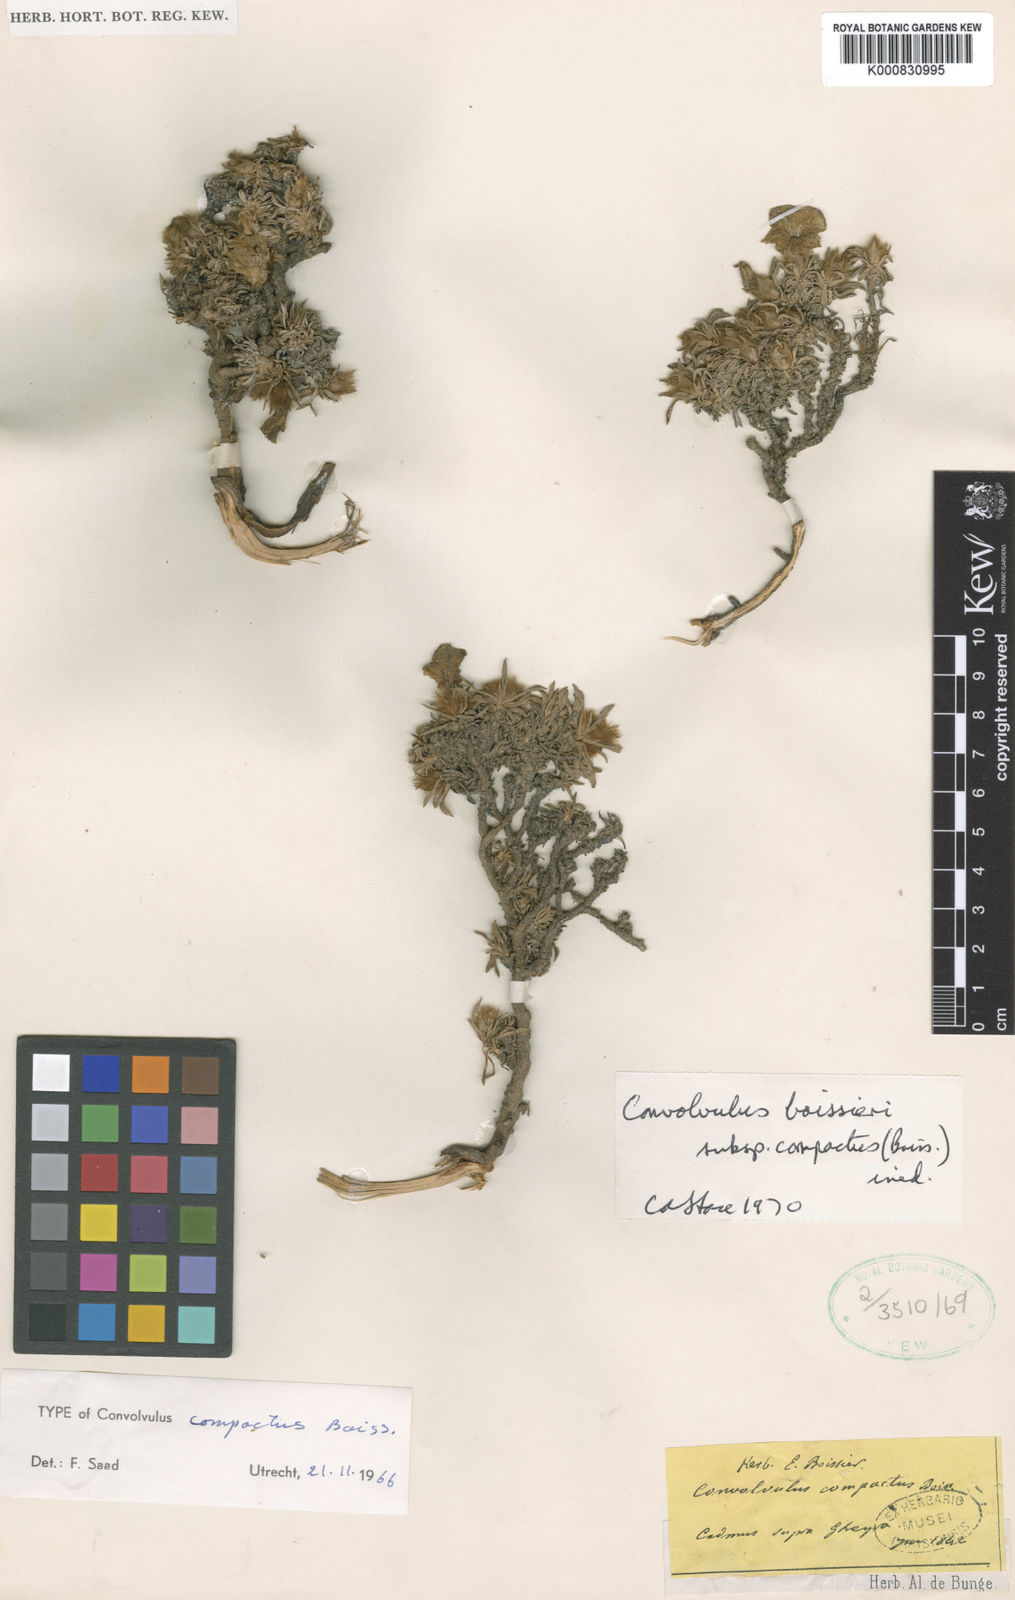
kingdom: Plantae
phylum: Tracheophyta
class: Magnoliopsida
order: Solanales
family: Convolvulaceae
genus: Convolvulus
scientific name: Convolvulus boissieri
